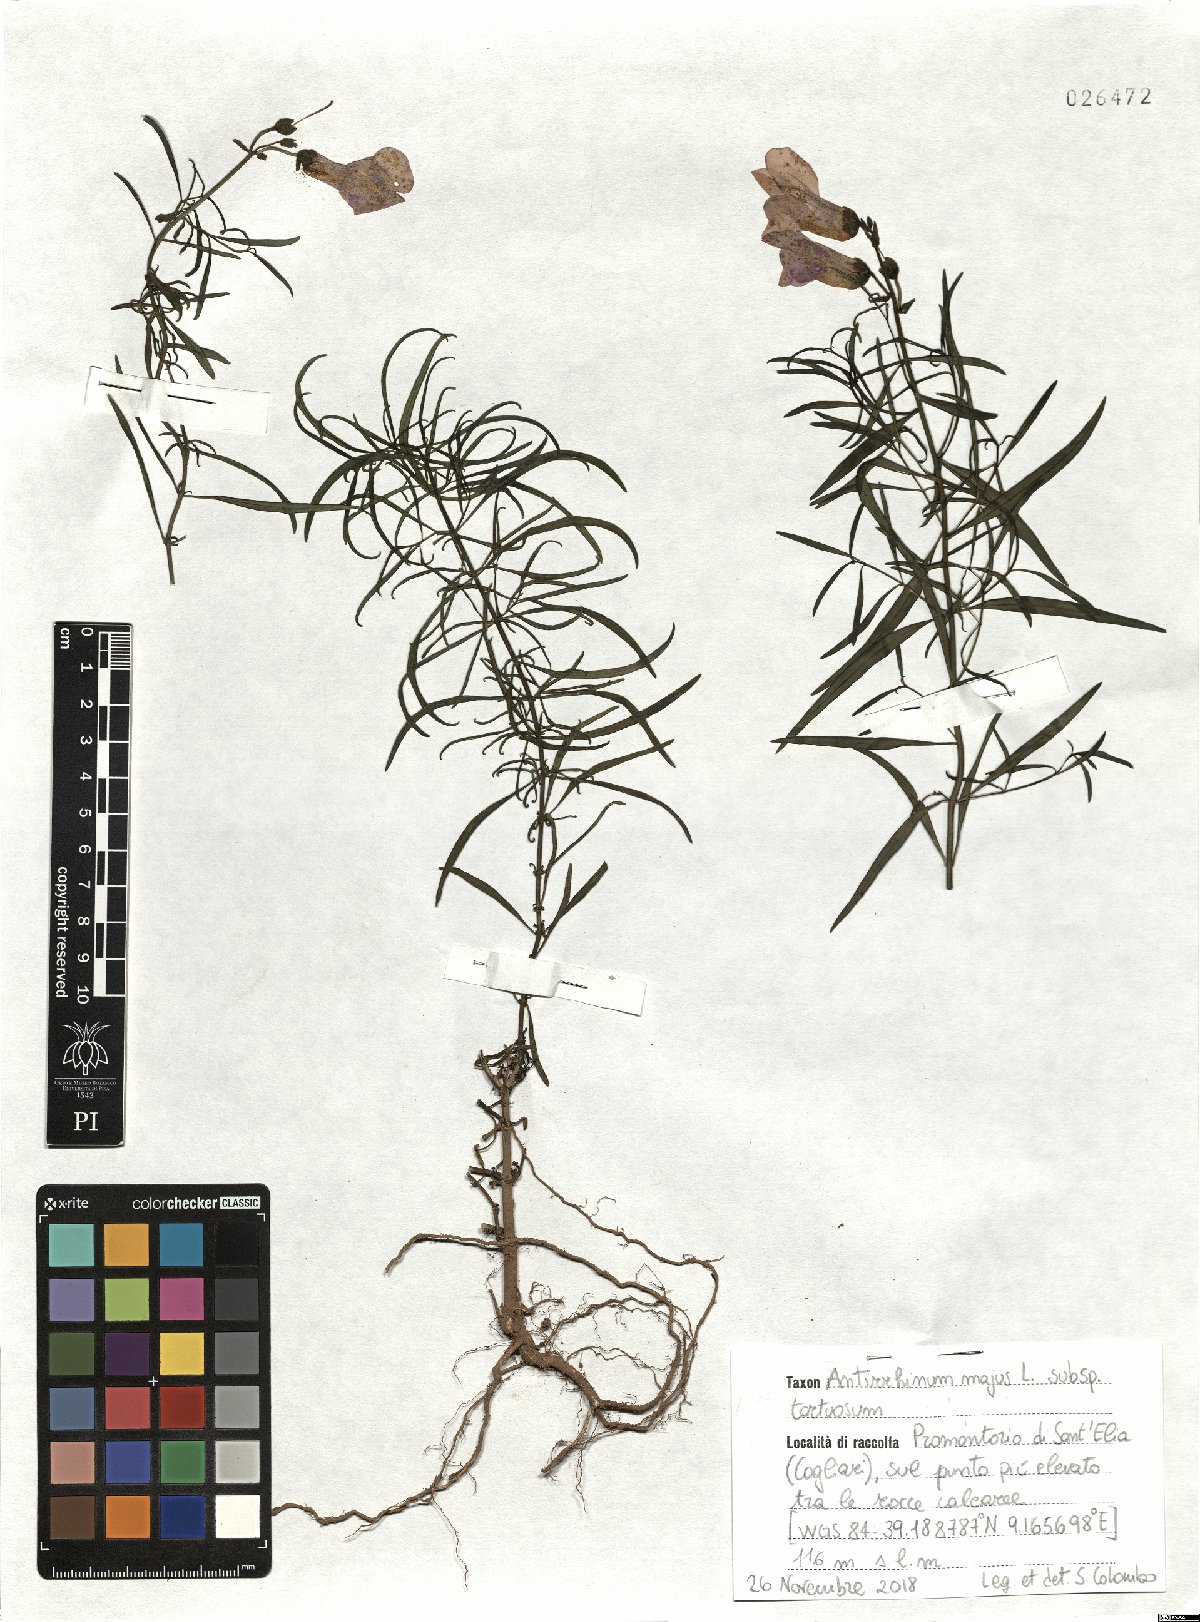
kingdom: Plantae
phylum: Tracheophyta
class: Magnoliopsida
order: Lamiales
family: Plantaginaceae
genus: Antirrhinum
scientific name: Antirrhinum tortuosum
